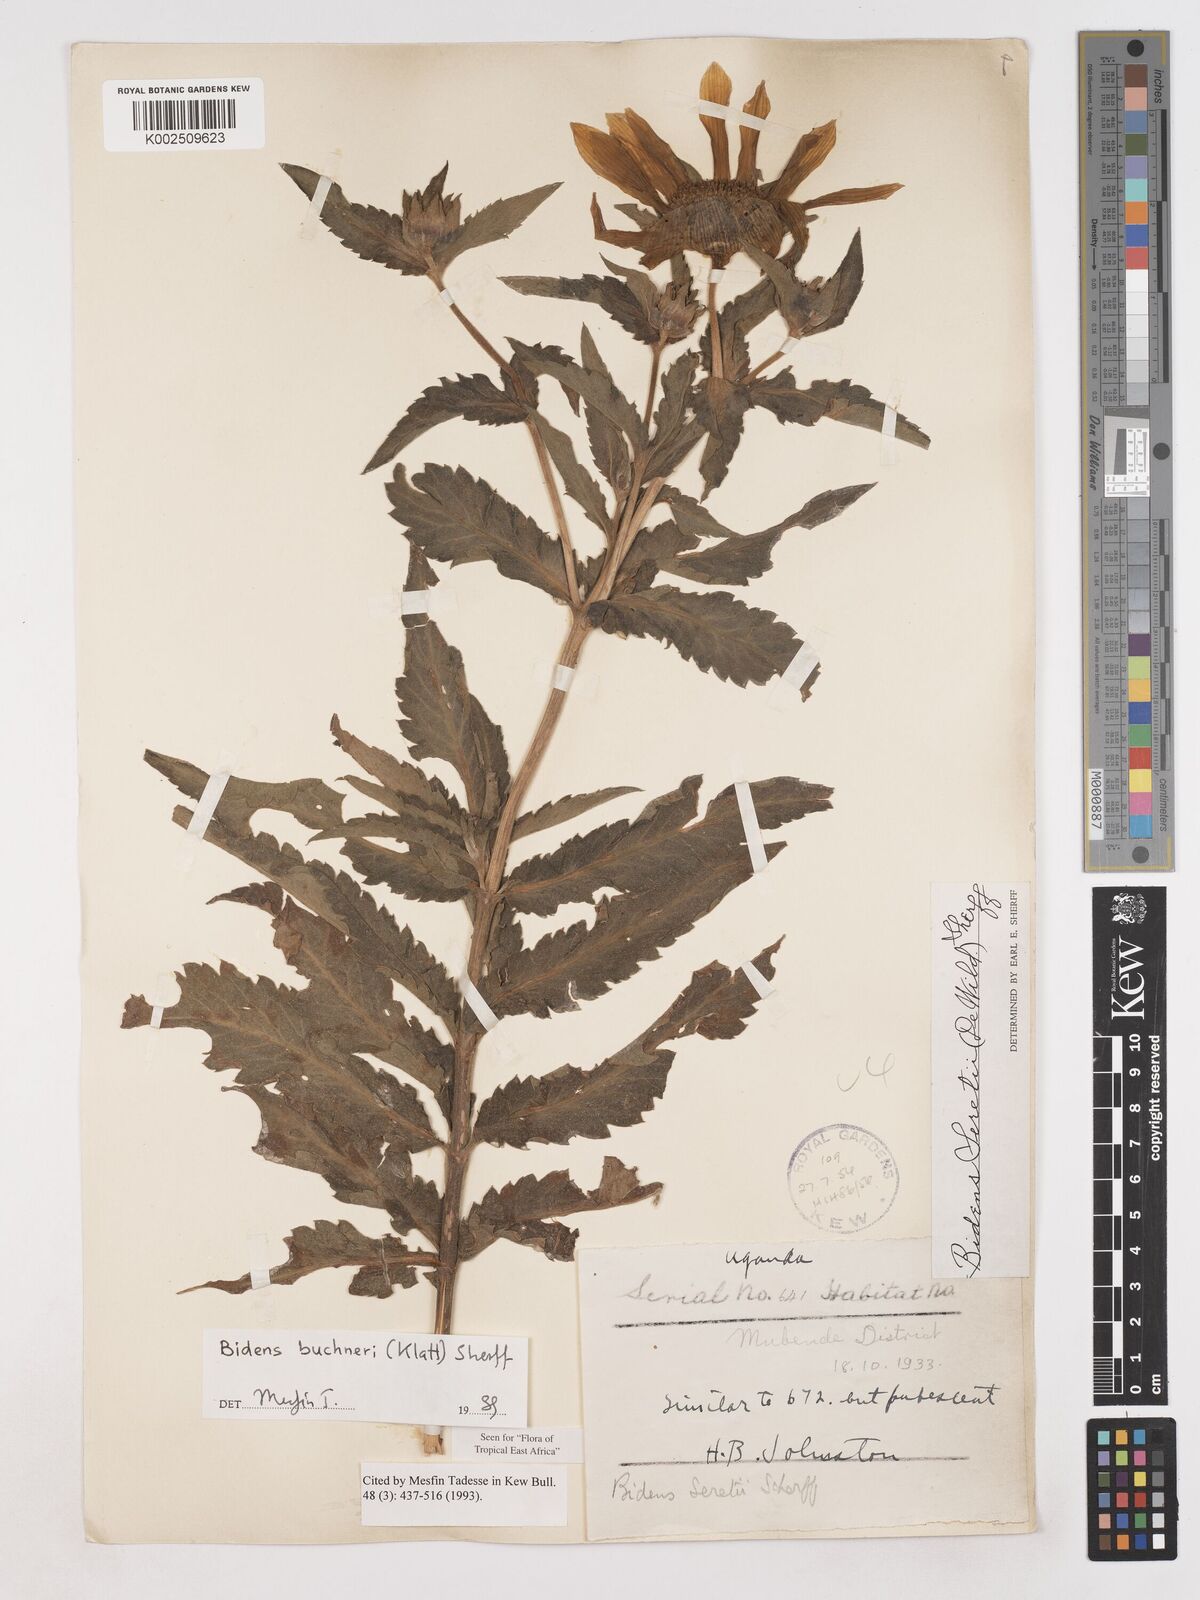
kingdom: Plantae
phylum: Tracheophyta
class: Magnoliopsida
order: Asterales
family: Asteraceae
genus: Bidens
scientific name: Bidens buchneri
